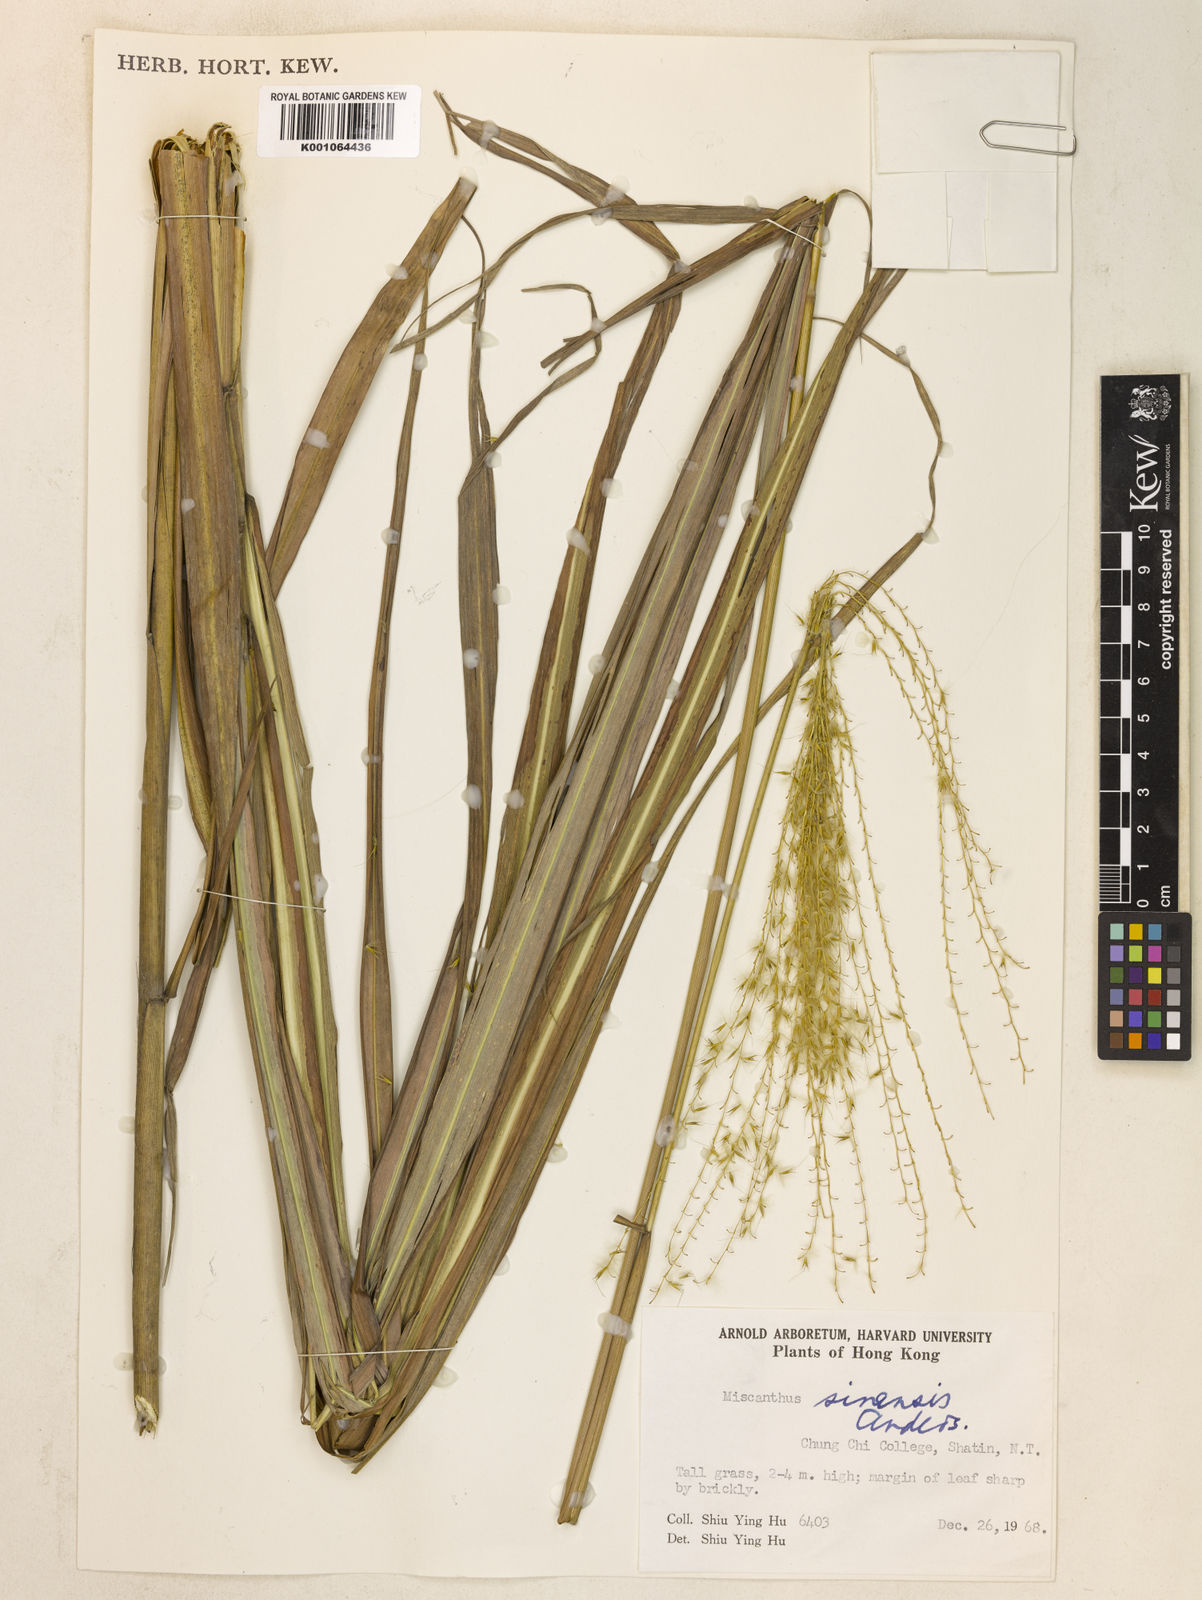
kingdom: Plantae
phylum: Tracheophyta
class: Liliopsida
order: Poales
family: Poaceae
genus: Miscanthus
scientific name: Miscanthus sinensis
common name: Chinese silvergrass
